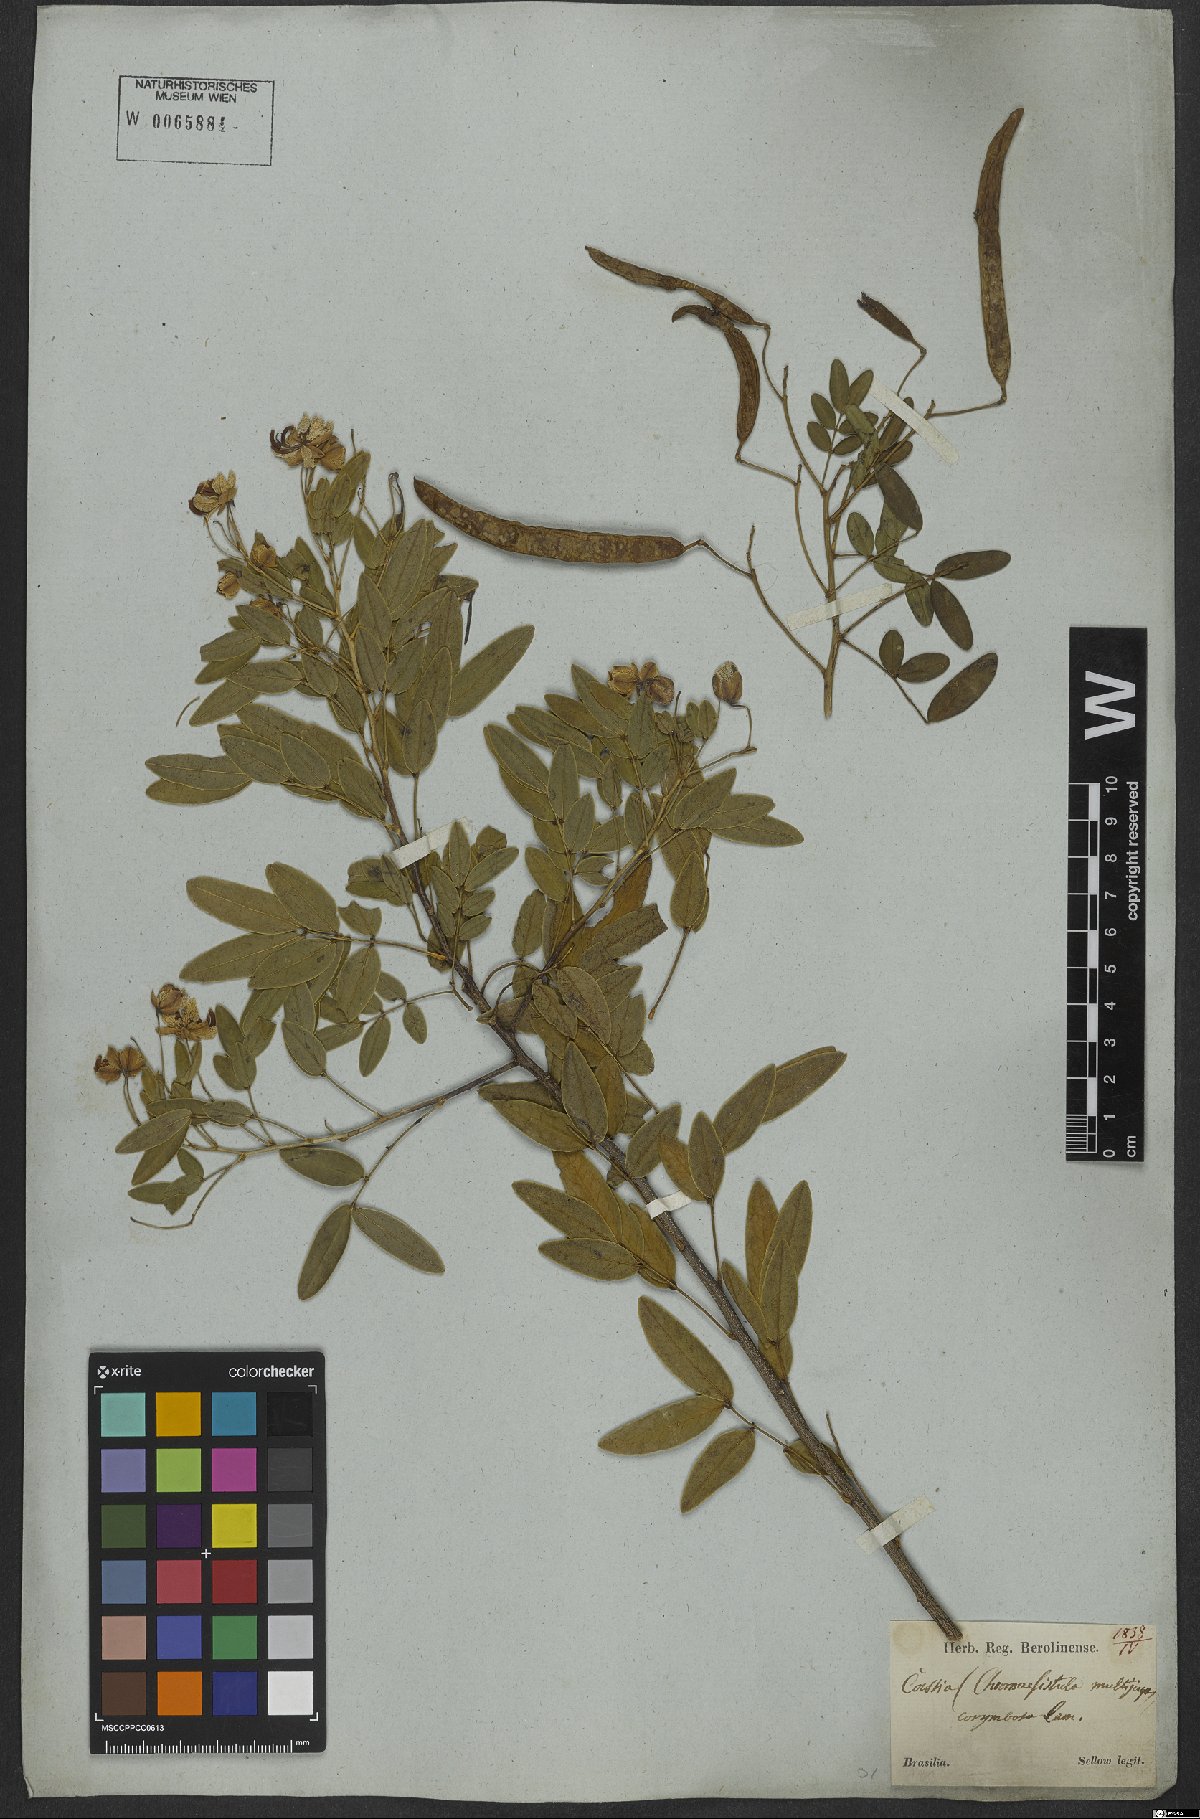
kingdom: Plantae
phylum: Tracheophyta
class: Magnoliopsida
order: Fabales
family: Fabaceae
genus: Senna
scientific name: Senna corymbosa
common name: Argentine senna
